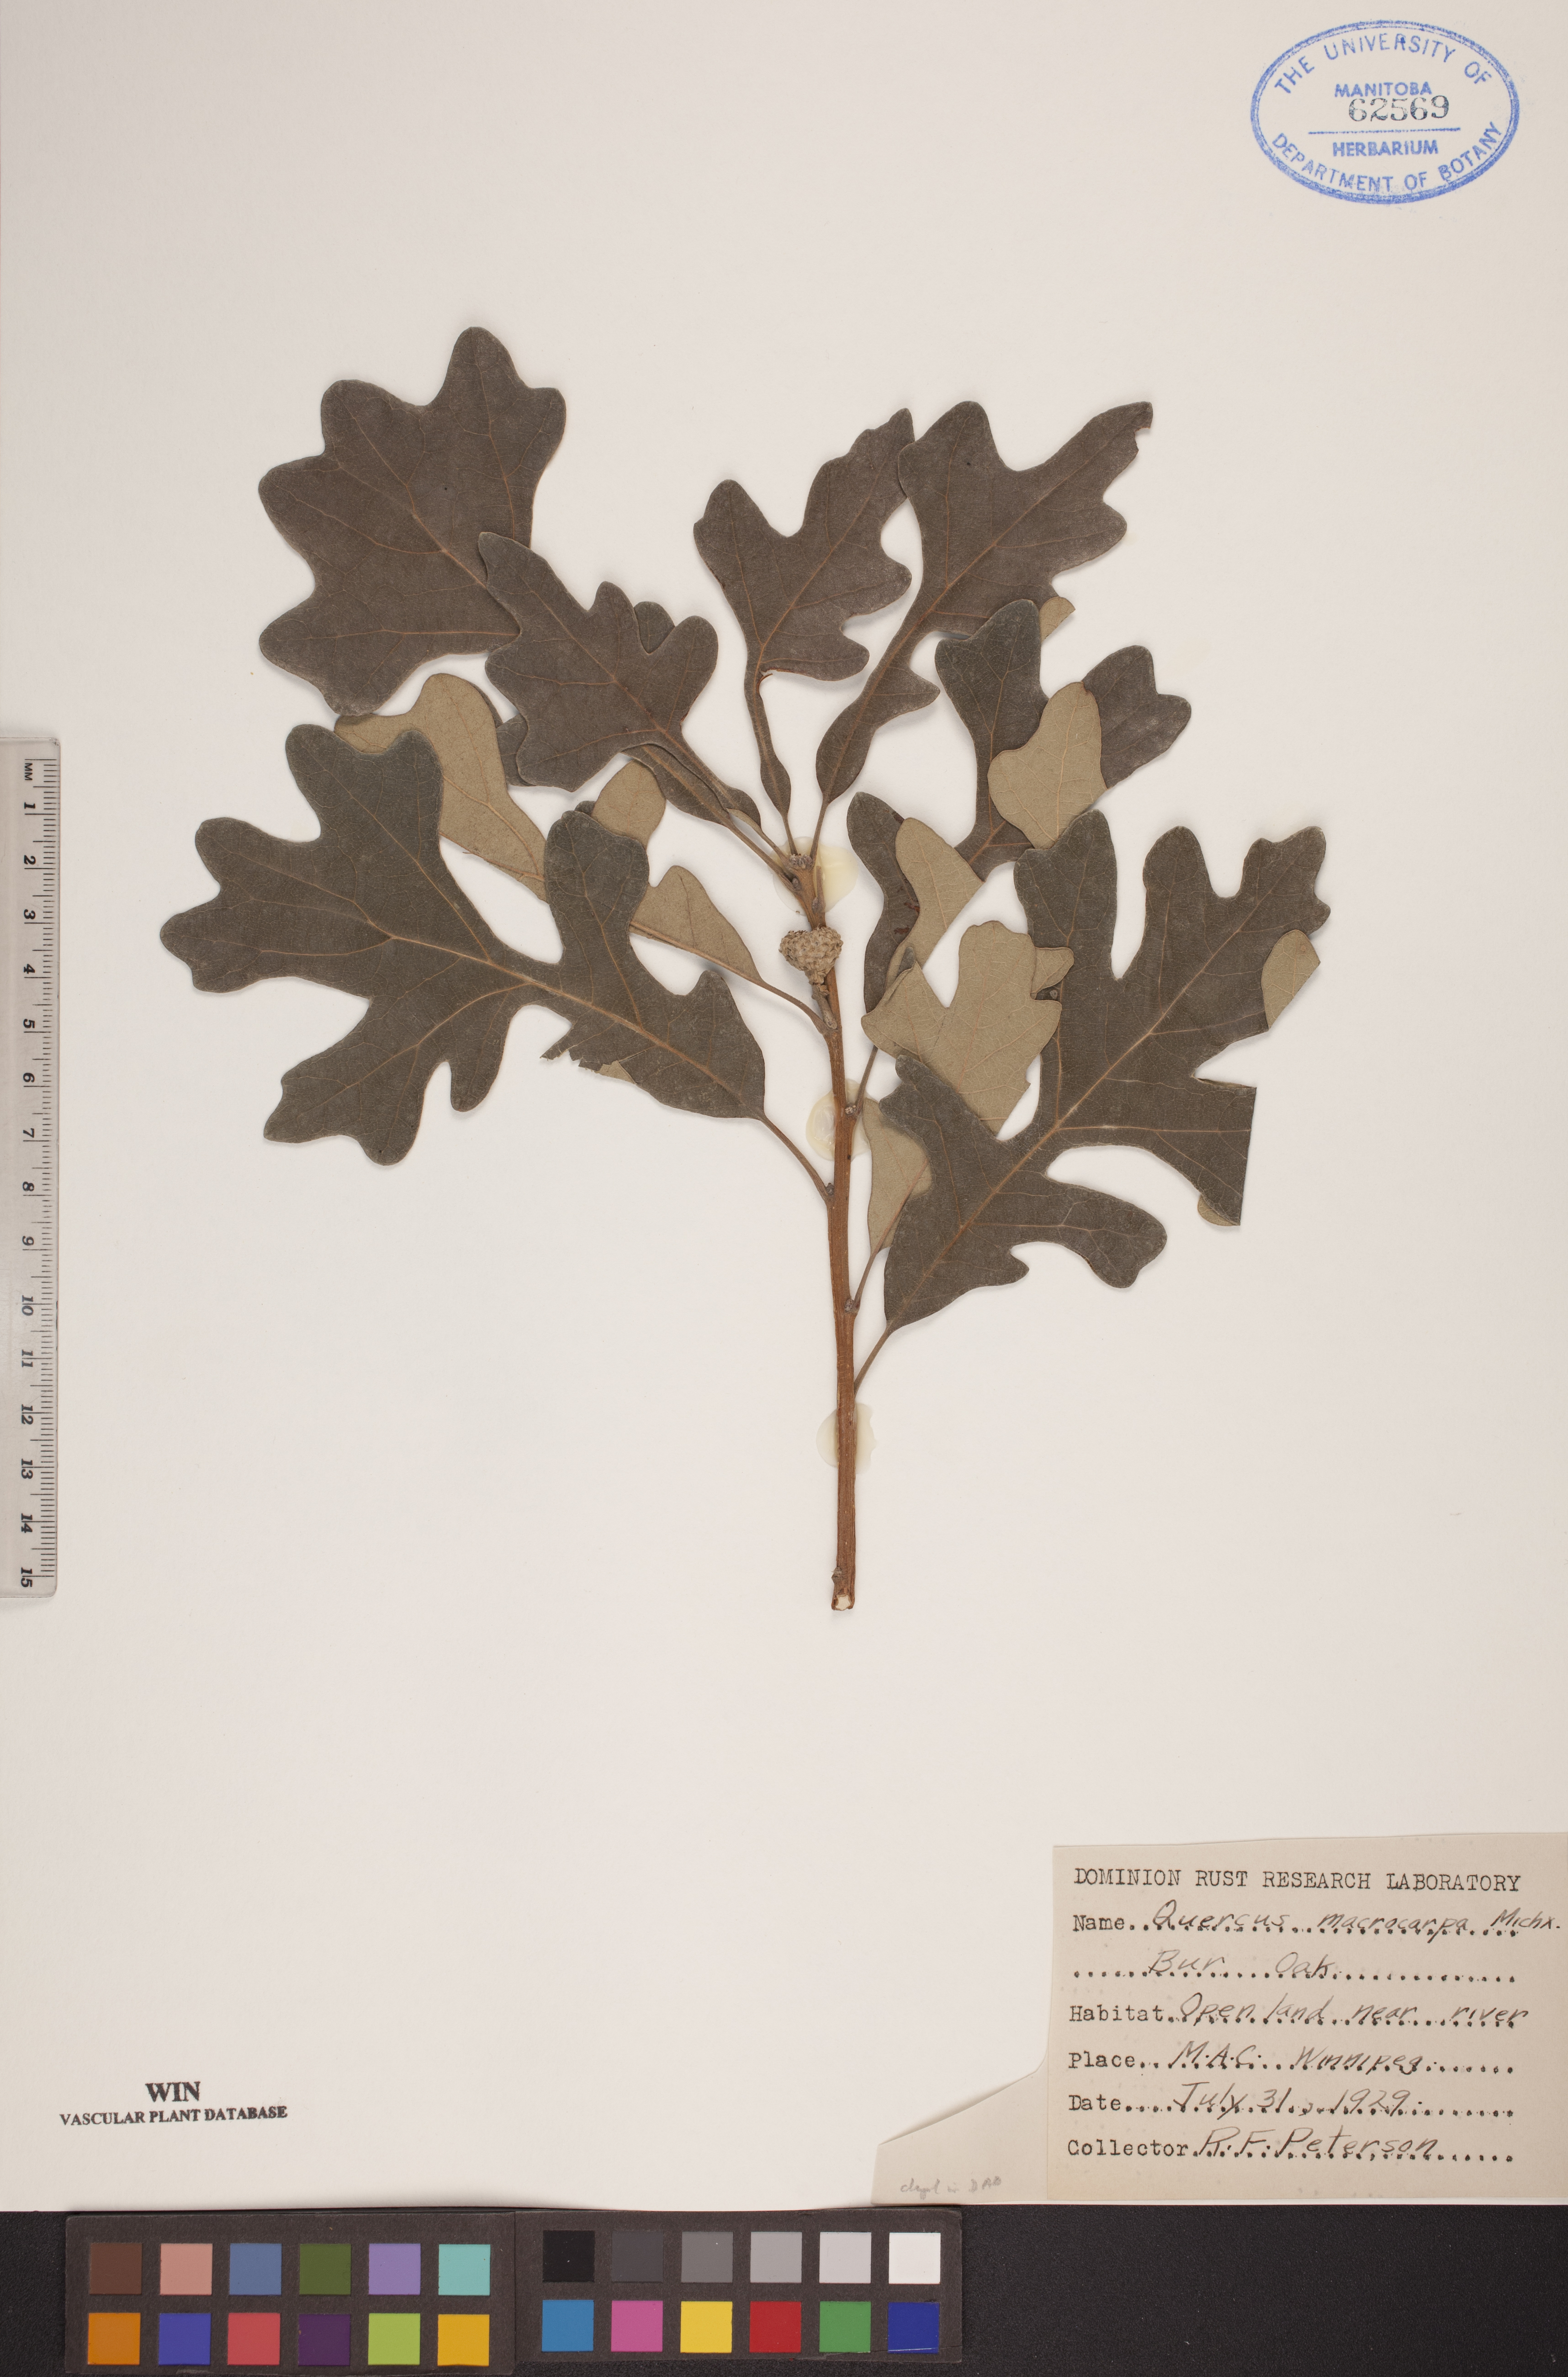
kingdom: Plantae
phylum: Tracheophyta
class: Magnoliopsida
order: Fagales
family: Fagaceae
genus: Quercus
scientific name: Quercus macrocarpa
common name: Bur oak
